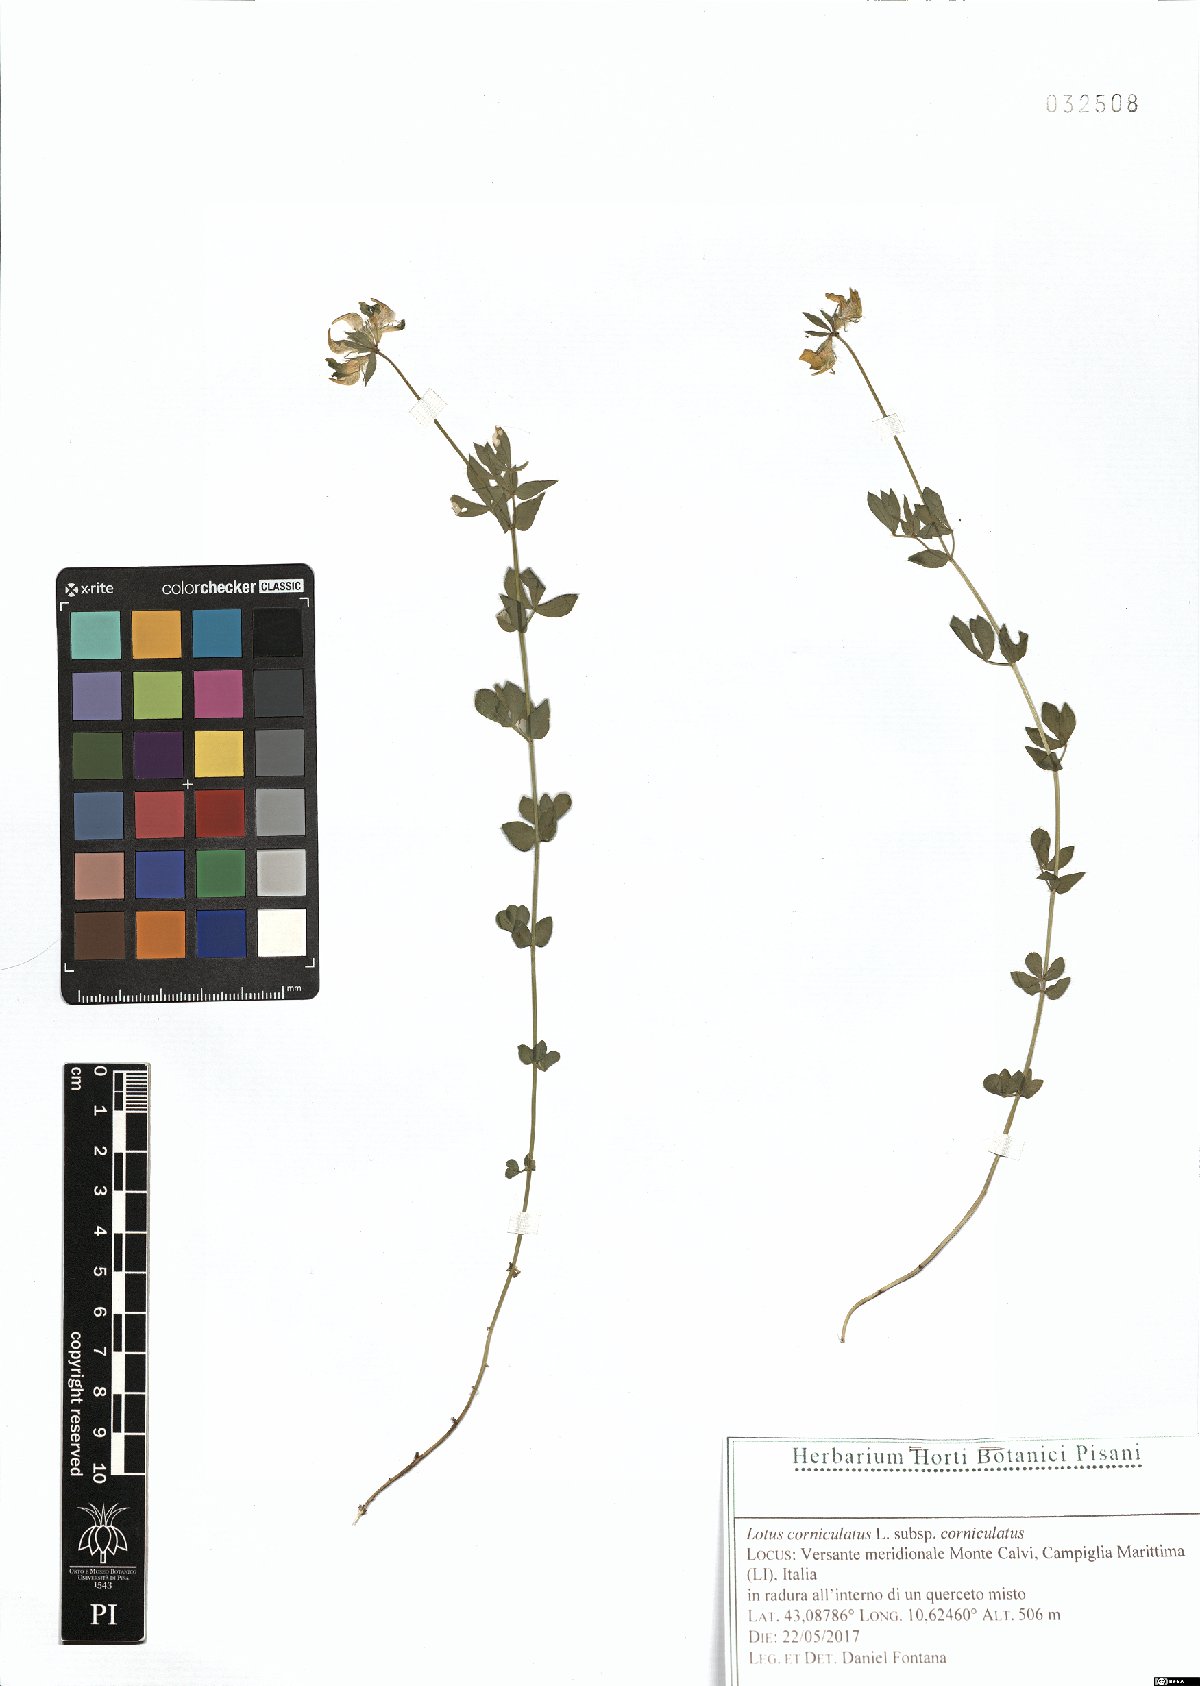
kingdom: Plantae
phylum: Tracheophyta
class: Magnoliopsida
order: Fabales
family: Fabaceae
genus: Lotus
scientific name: Lotus corniculatus
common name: Common bird's-foot-trefoil
